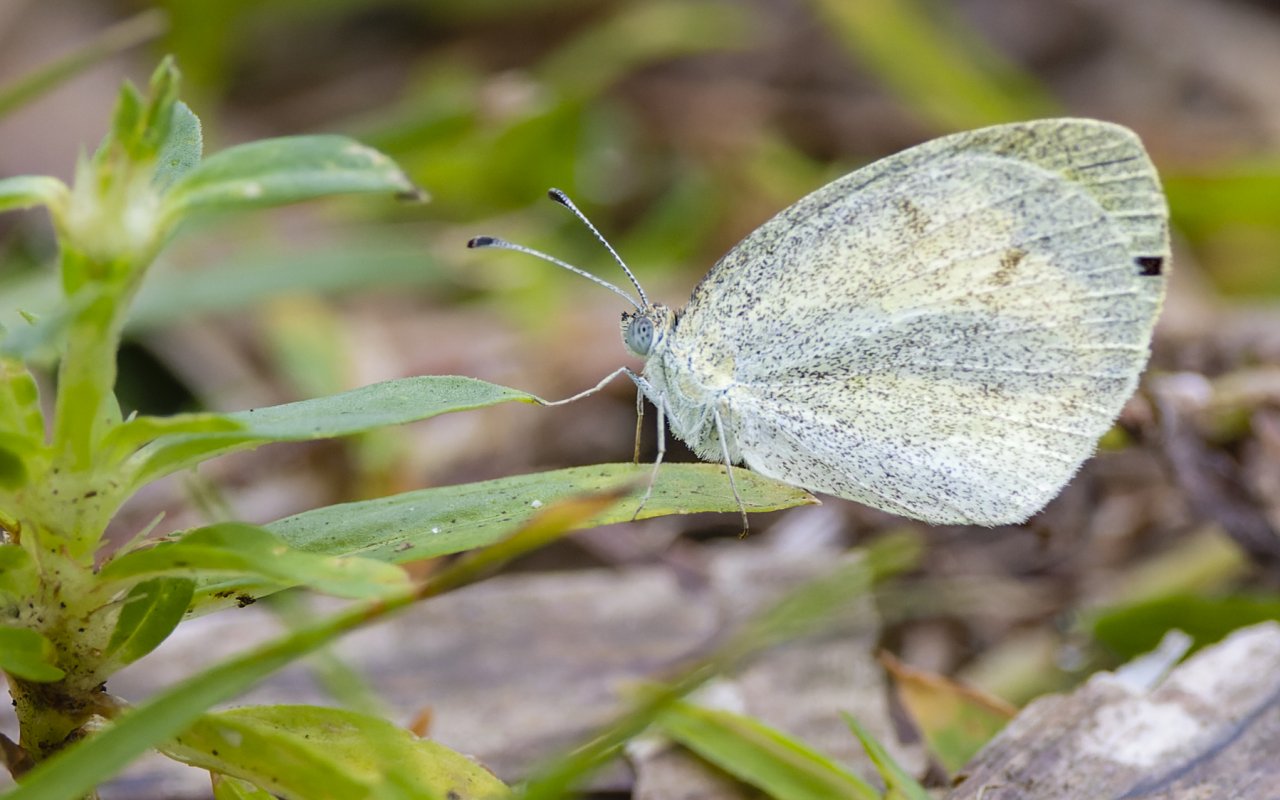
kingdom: Animalia
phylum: Arthropoda
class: Insecta
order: Lepidoptera
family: Pieridae
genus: Eurema
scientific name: Eurema daira
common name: Barred Yellow
